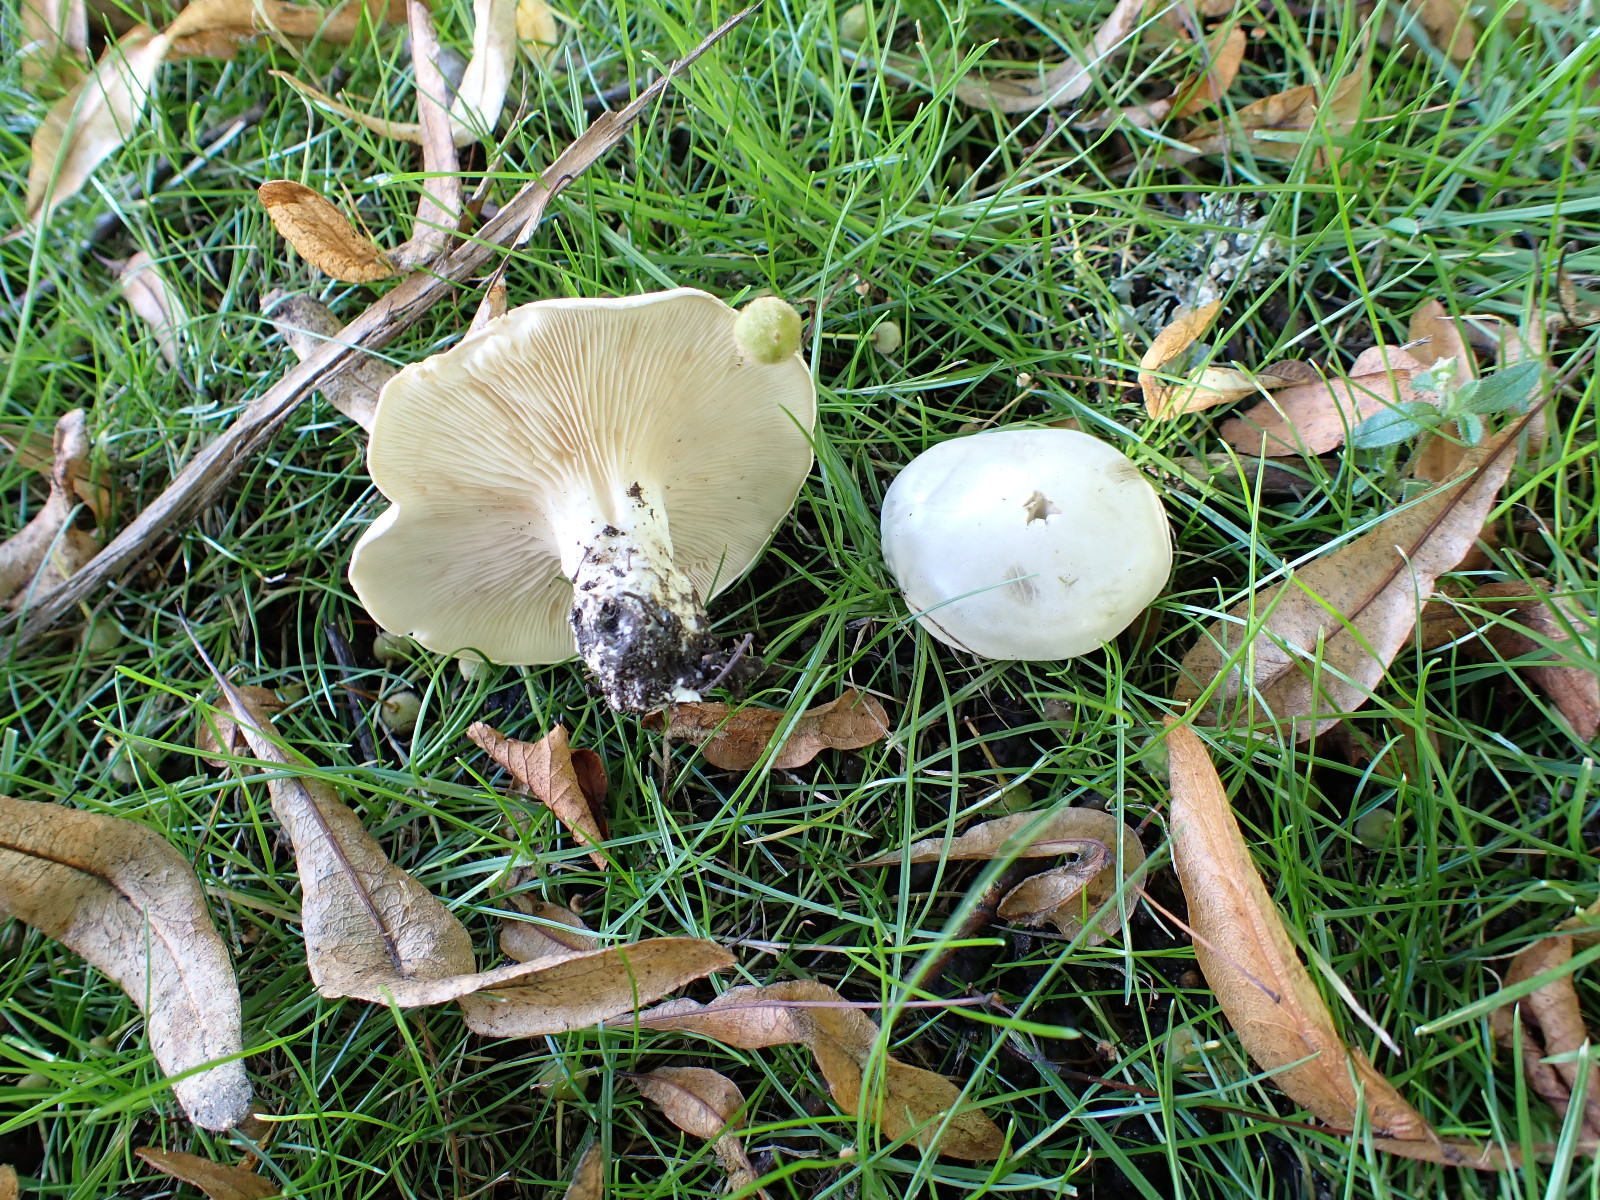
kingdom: Fungi
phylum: Basidiomycota
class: Agaricomycetes
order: Agaricales
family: Entolomataceae
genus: Clitopilus
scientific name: Clitopilus prunulus
